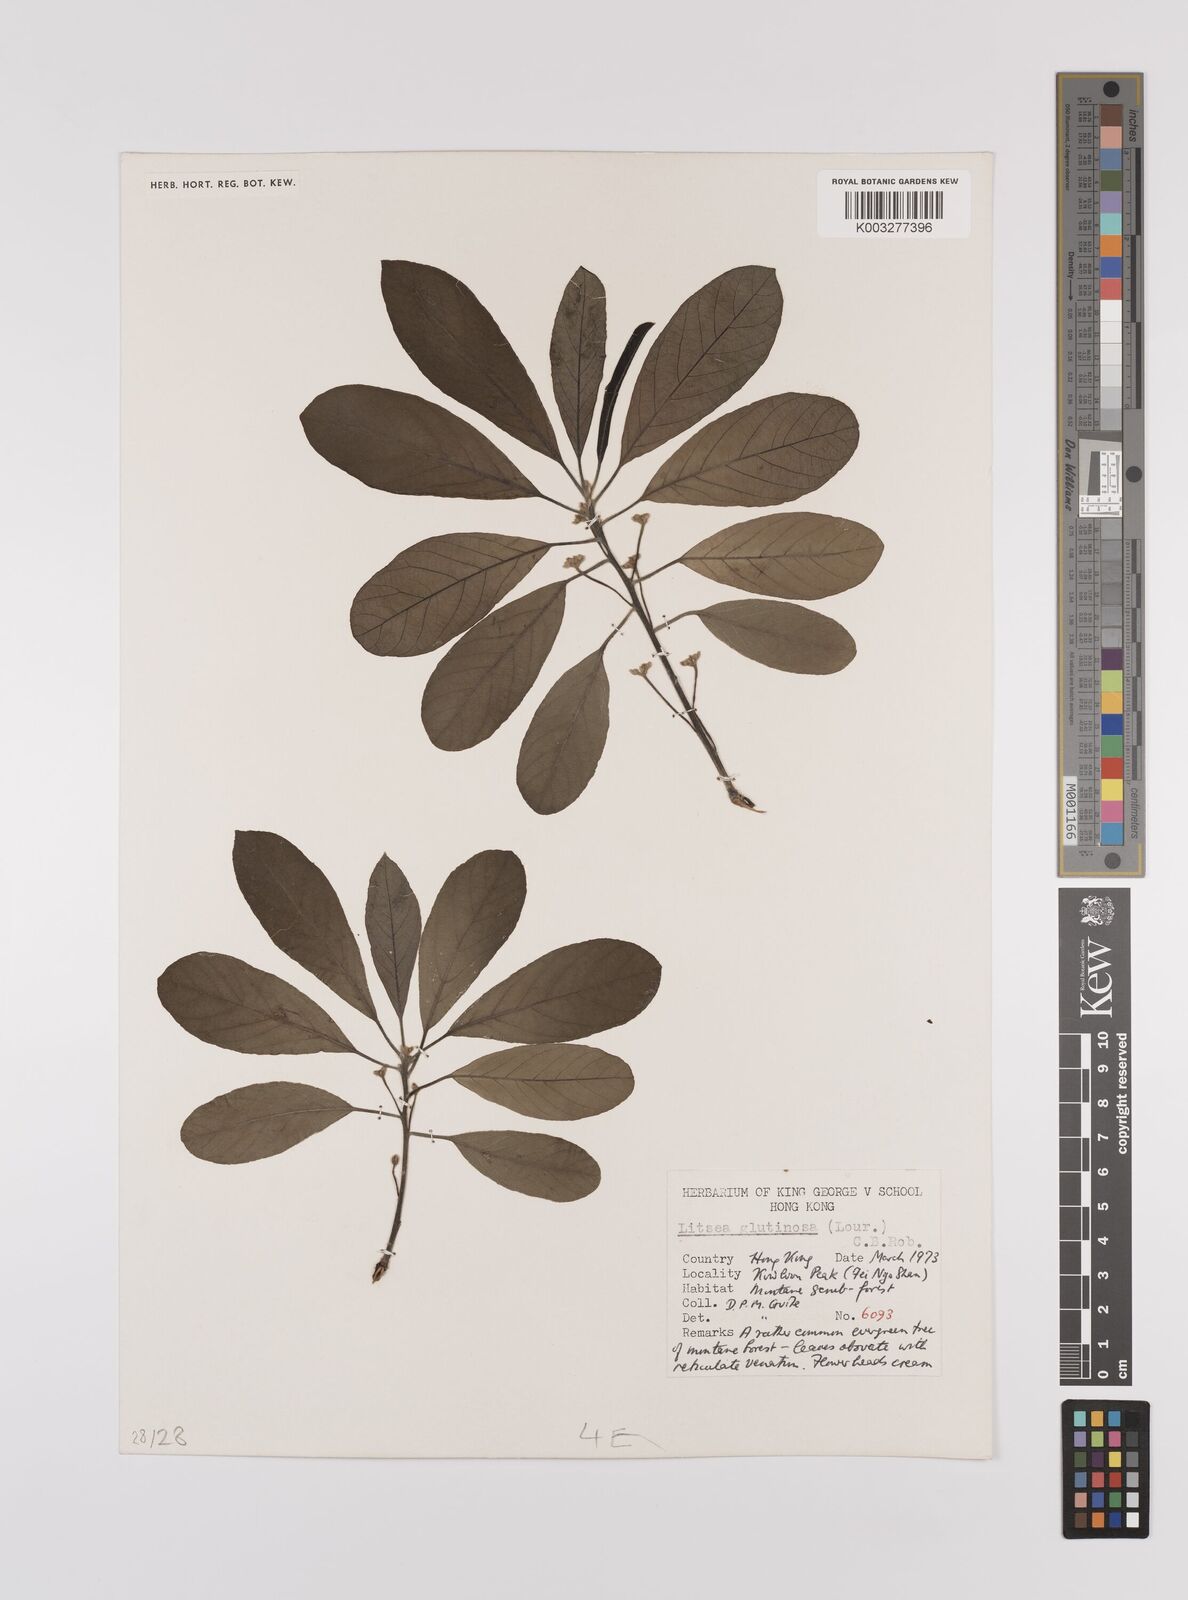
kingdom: Plantae
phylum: Tracheophyta
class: Magnoliopsida
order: Laurales
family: Lauraceae
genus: Litsea
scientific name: Litsea glutinosa
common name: Indian-laurel
